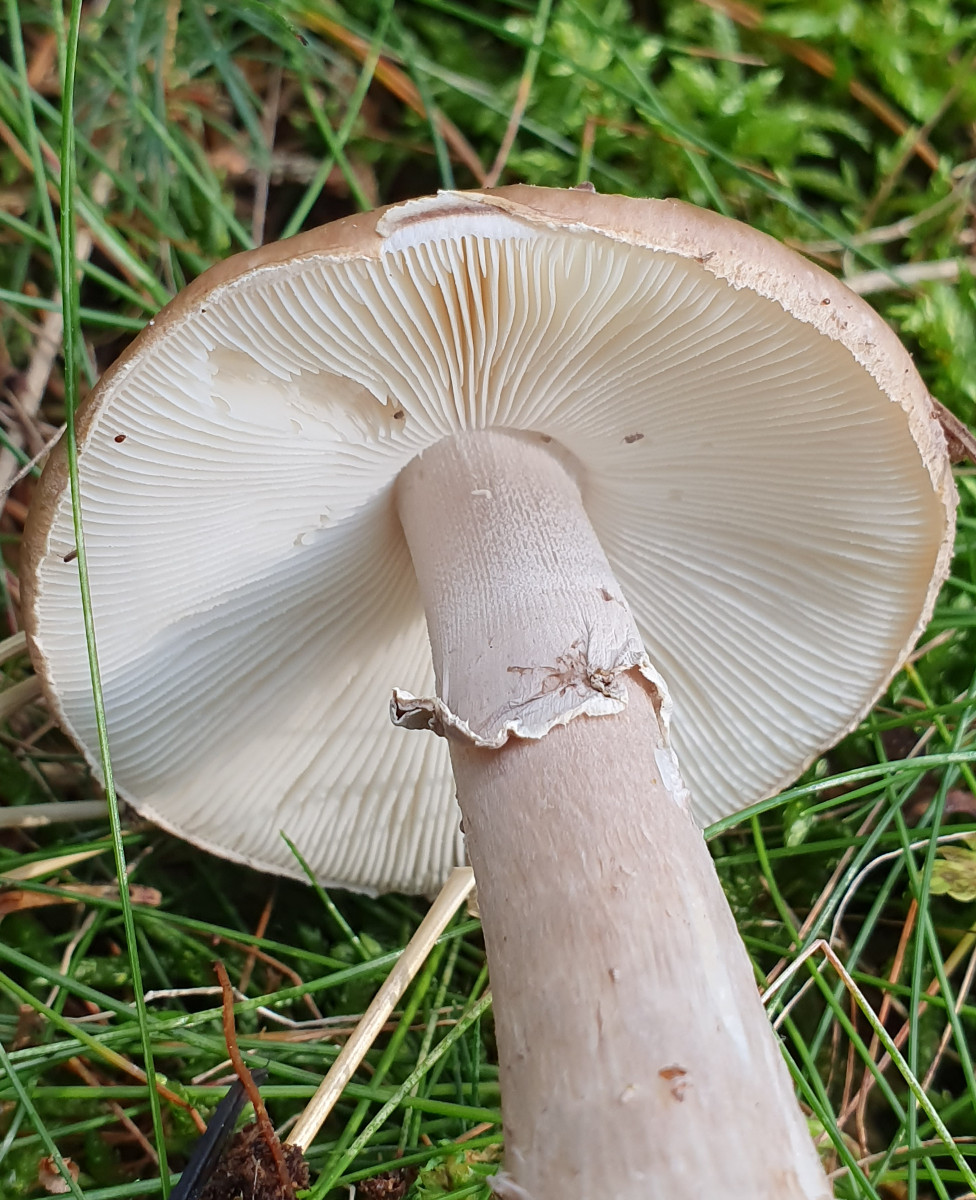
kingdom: Fungi
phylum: Basidiomycota
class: Agaricomycetes
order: Agaricales
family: Amanitaceae
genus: Amanita
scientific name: Amanita porphyria
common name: porfyr-fluesvamp
